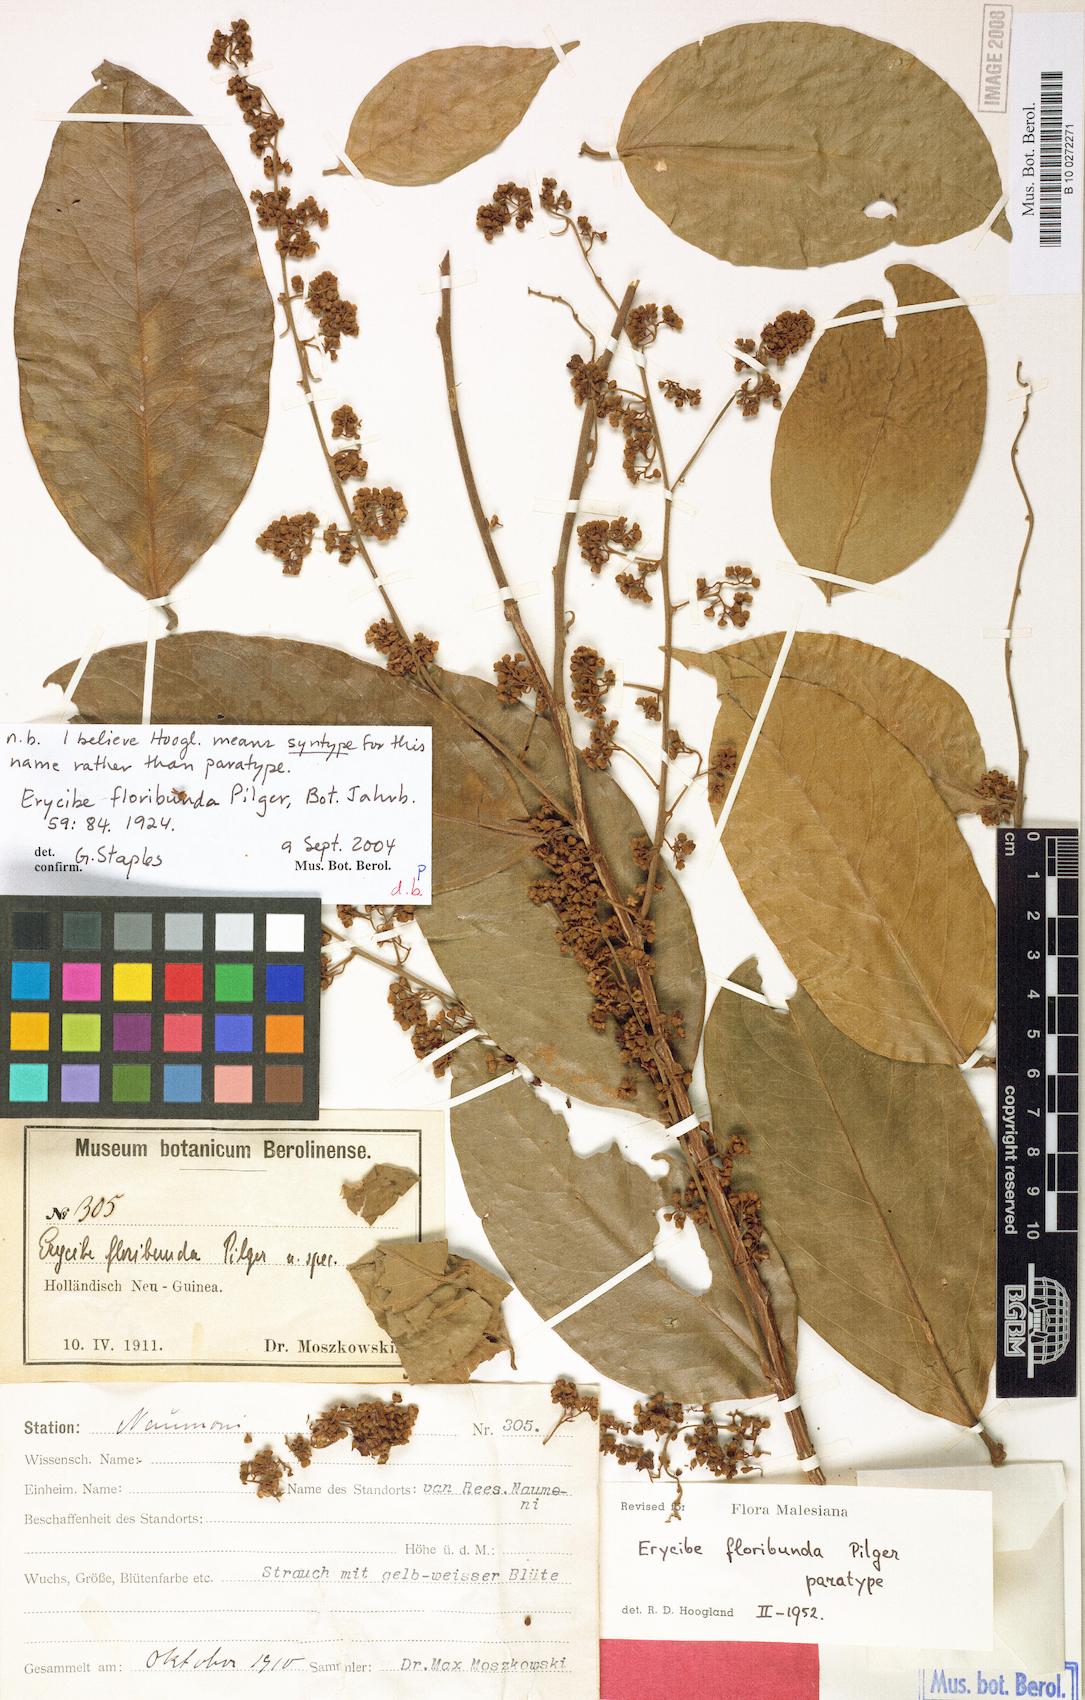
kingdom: Plantae
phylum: Tracheophyta
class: Magnoliopsida
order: Solanales
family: Convolvulaceae
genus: Erycibe
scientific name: Erycibe floribunda
